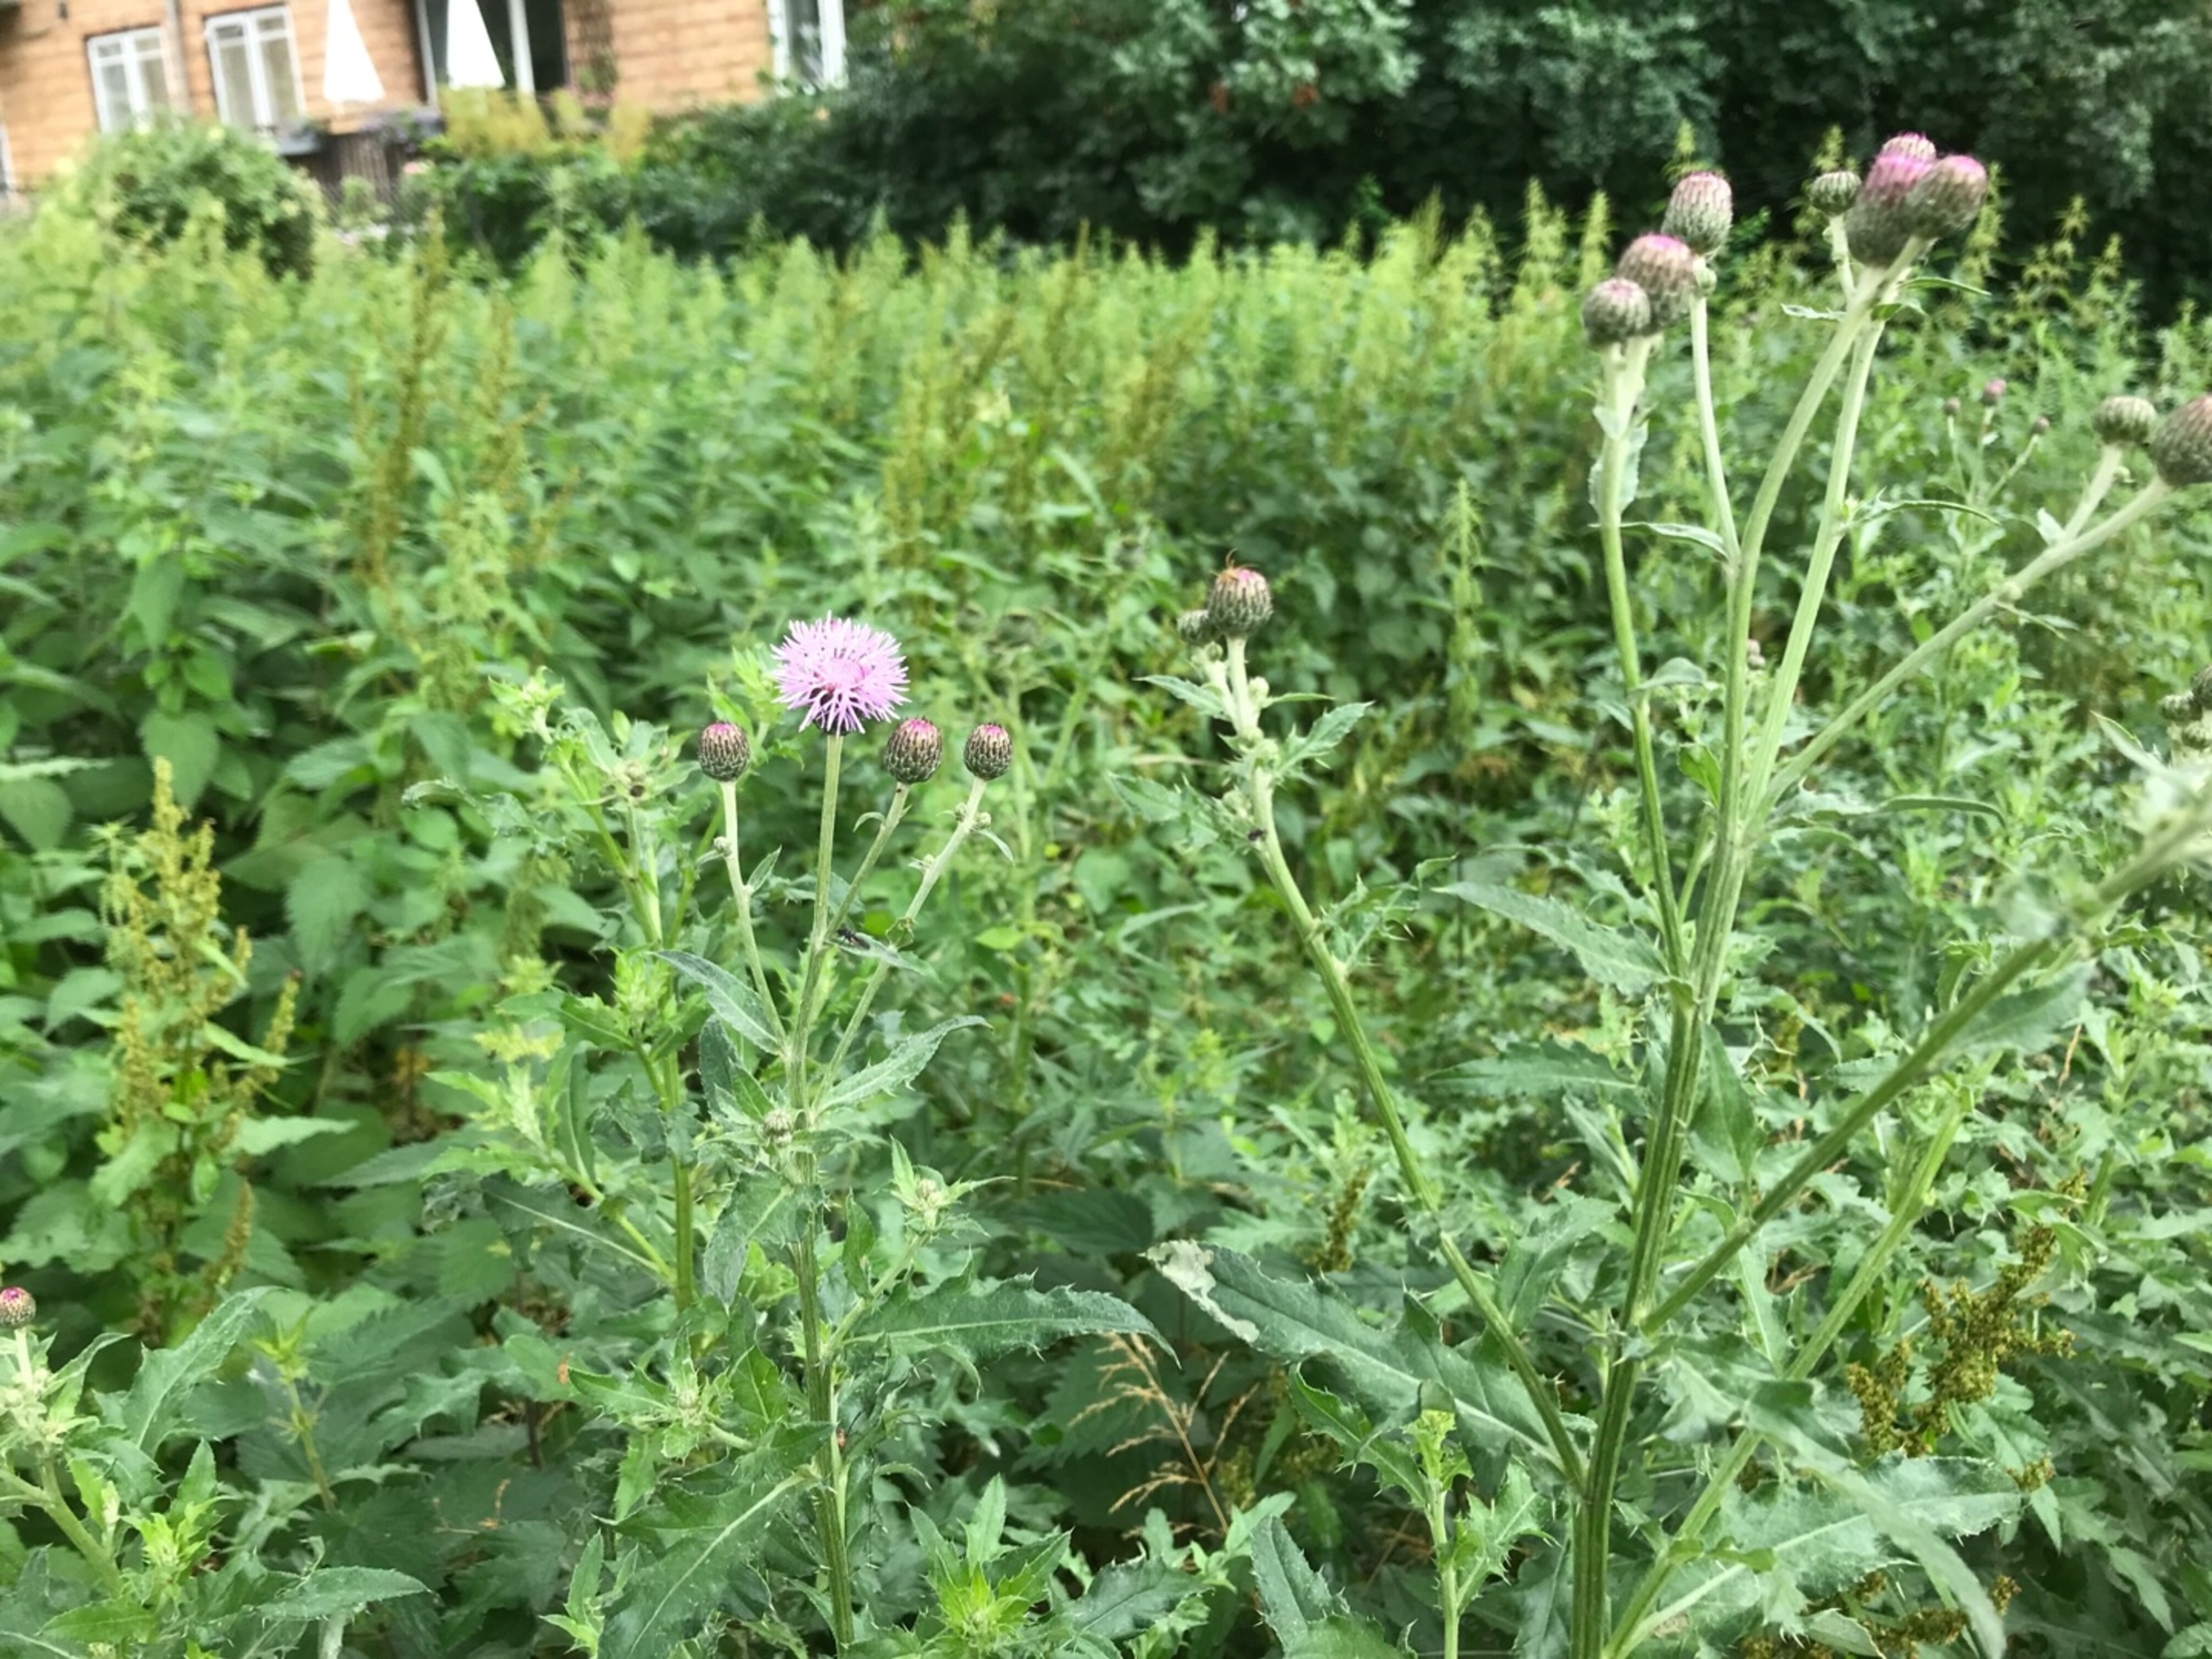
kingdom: Plantae
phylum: Tracheophyta
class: Magnoliopsida
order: Asterales
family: Asteraceae
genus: Cirsium
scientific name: Cirsium arvense
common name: Ager-tidsel
